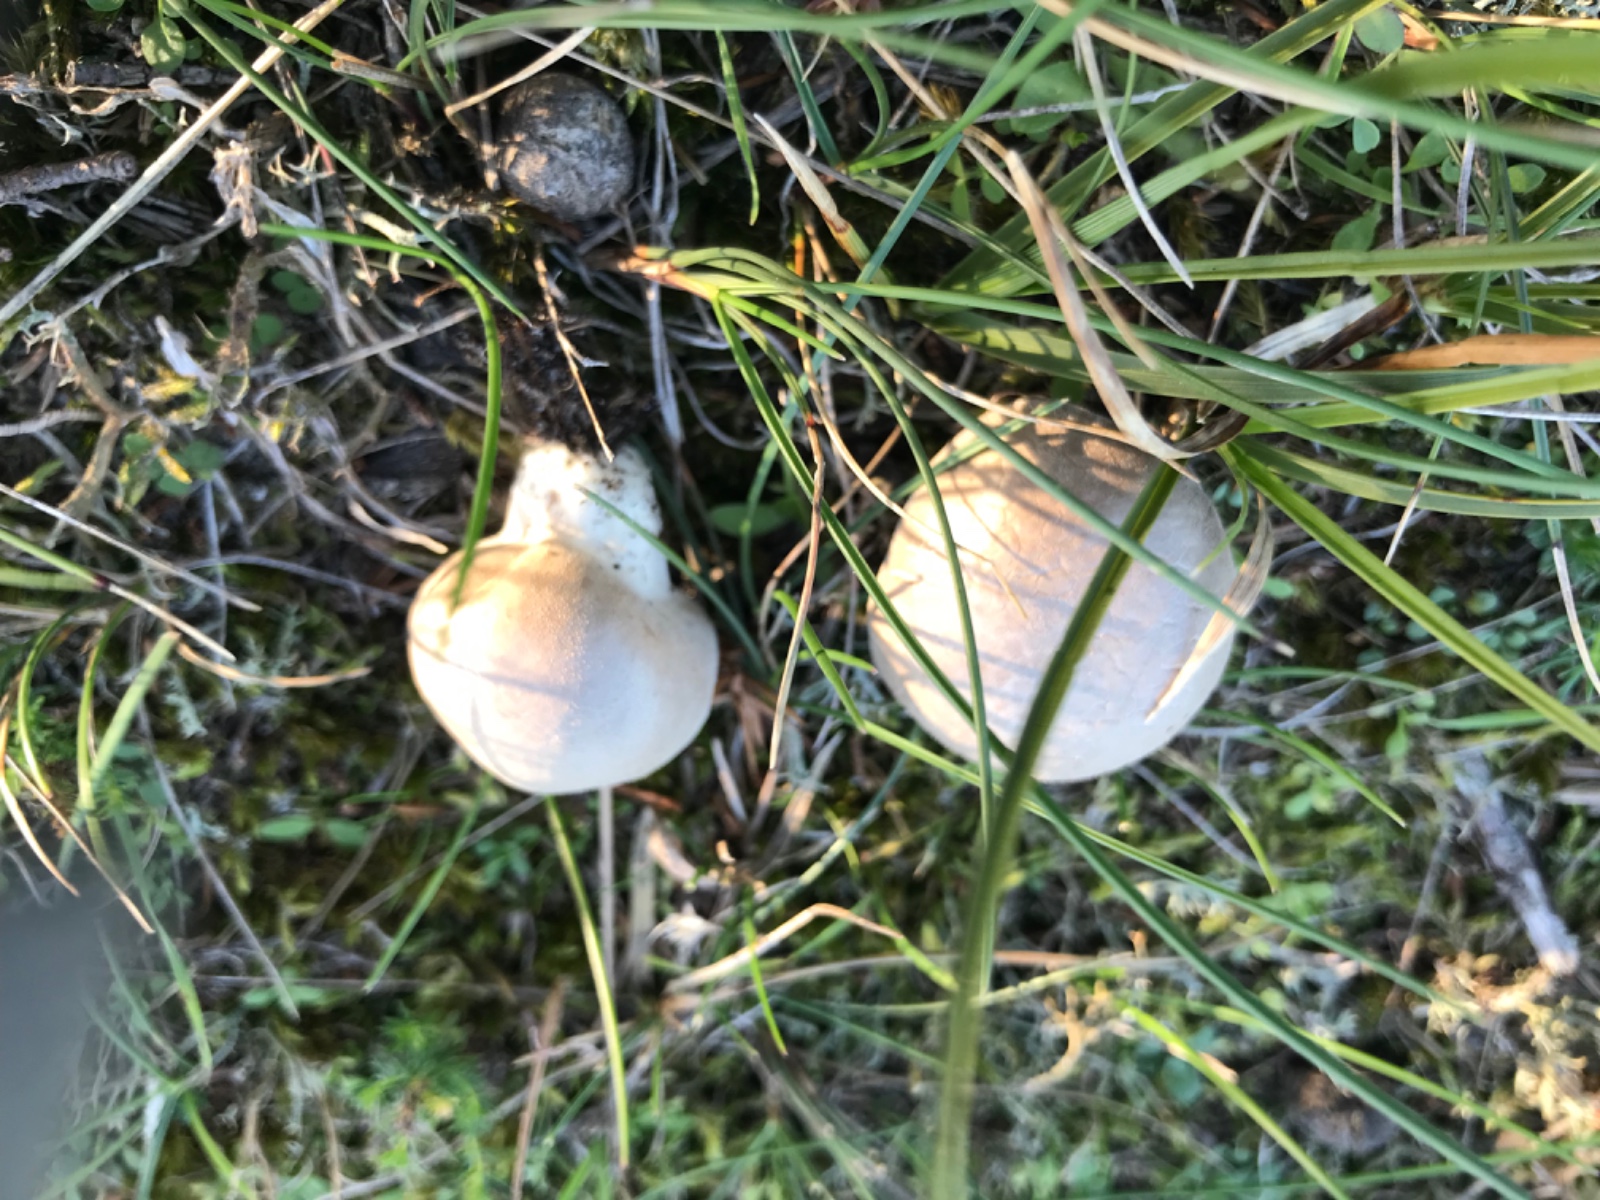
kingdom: Fungi
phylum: Basidiomycota
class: Agaricomycetes
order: Agaricales
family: Lycoperdaceae
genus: Lycoperdon
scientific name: Lycoperdon lividum
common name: mark-støvbold
